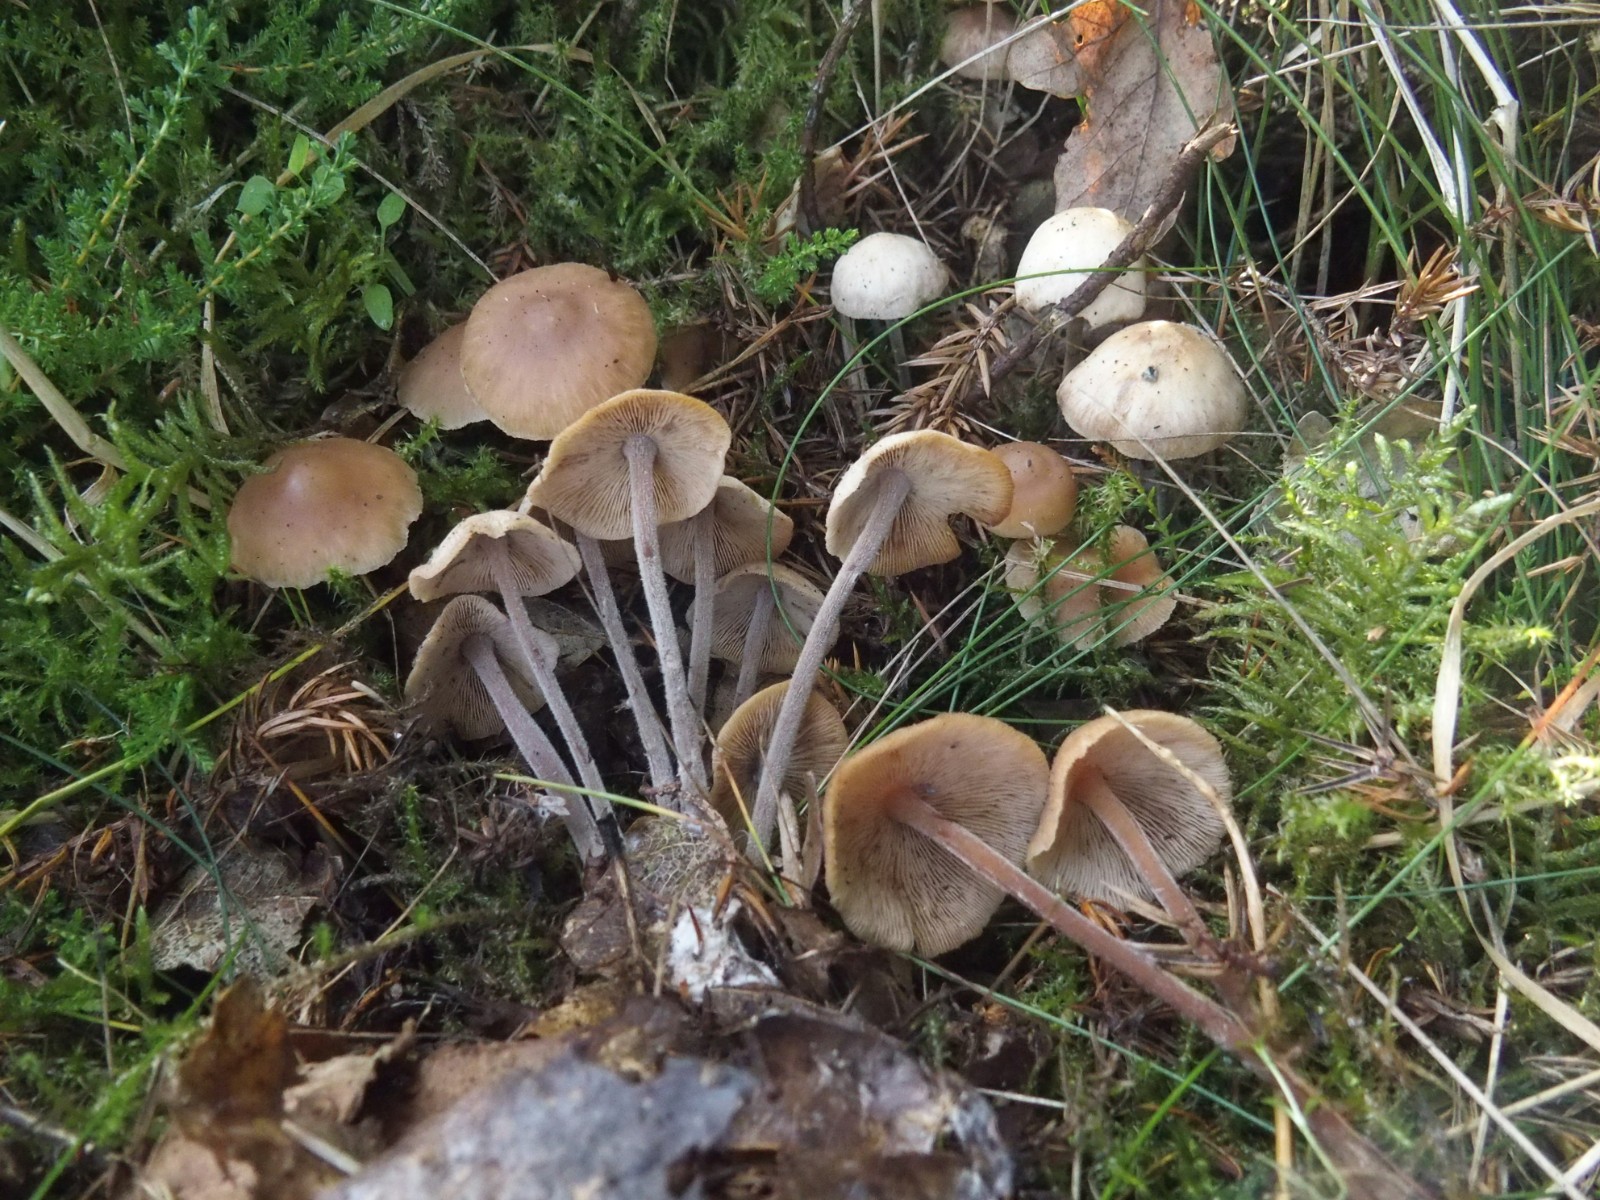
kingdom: Fungi
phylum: Basidiomycota
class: Agaricomycetes
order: Agaricales
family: Omphalotaceae
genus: Collybiopsis
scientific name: Collybiopsis confluens
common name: knippe-fladhat
